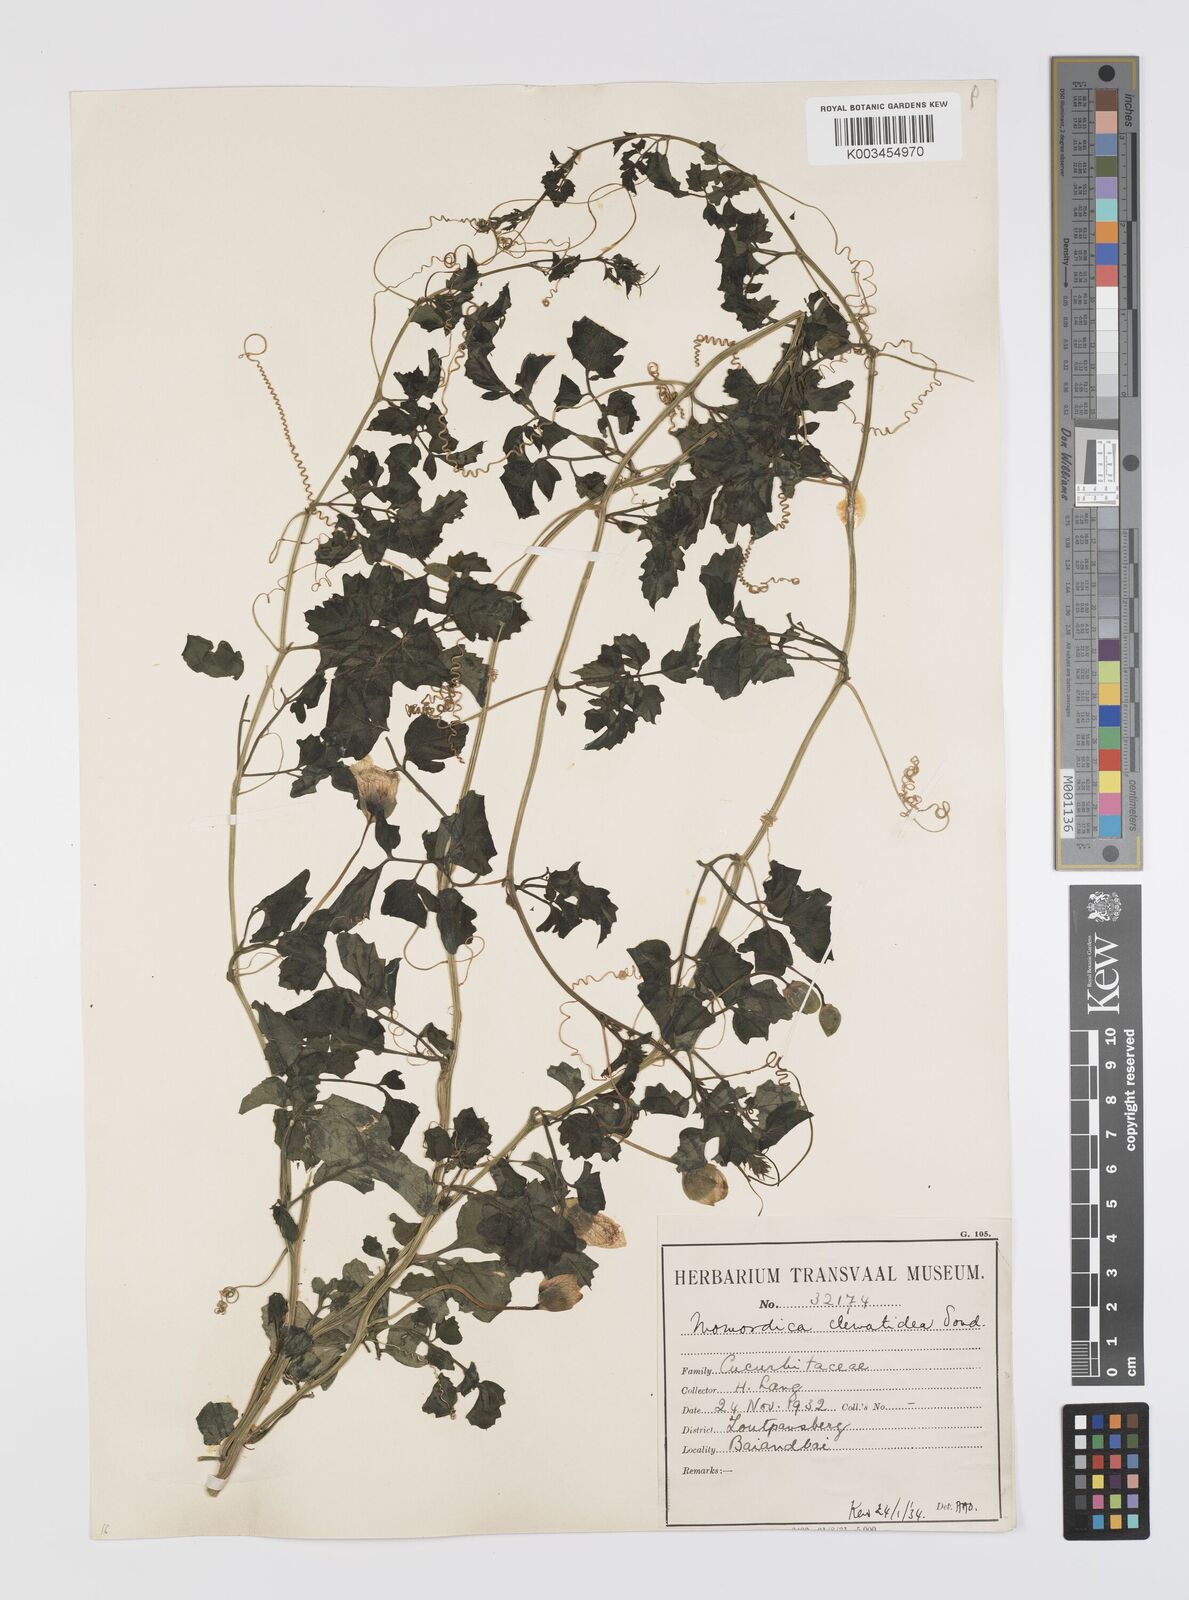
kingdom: Plantae
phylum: Tracheophyta
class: Magnoliopsida
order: Cucurbitales
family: Cucurbitaceae
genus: Momordica
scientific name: Momordica cardiospermoides
